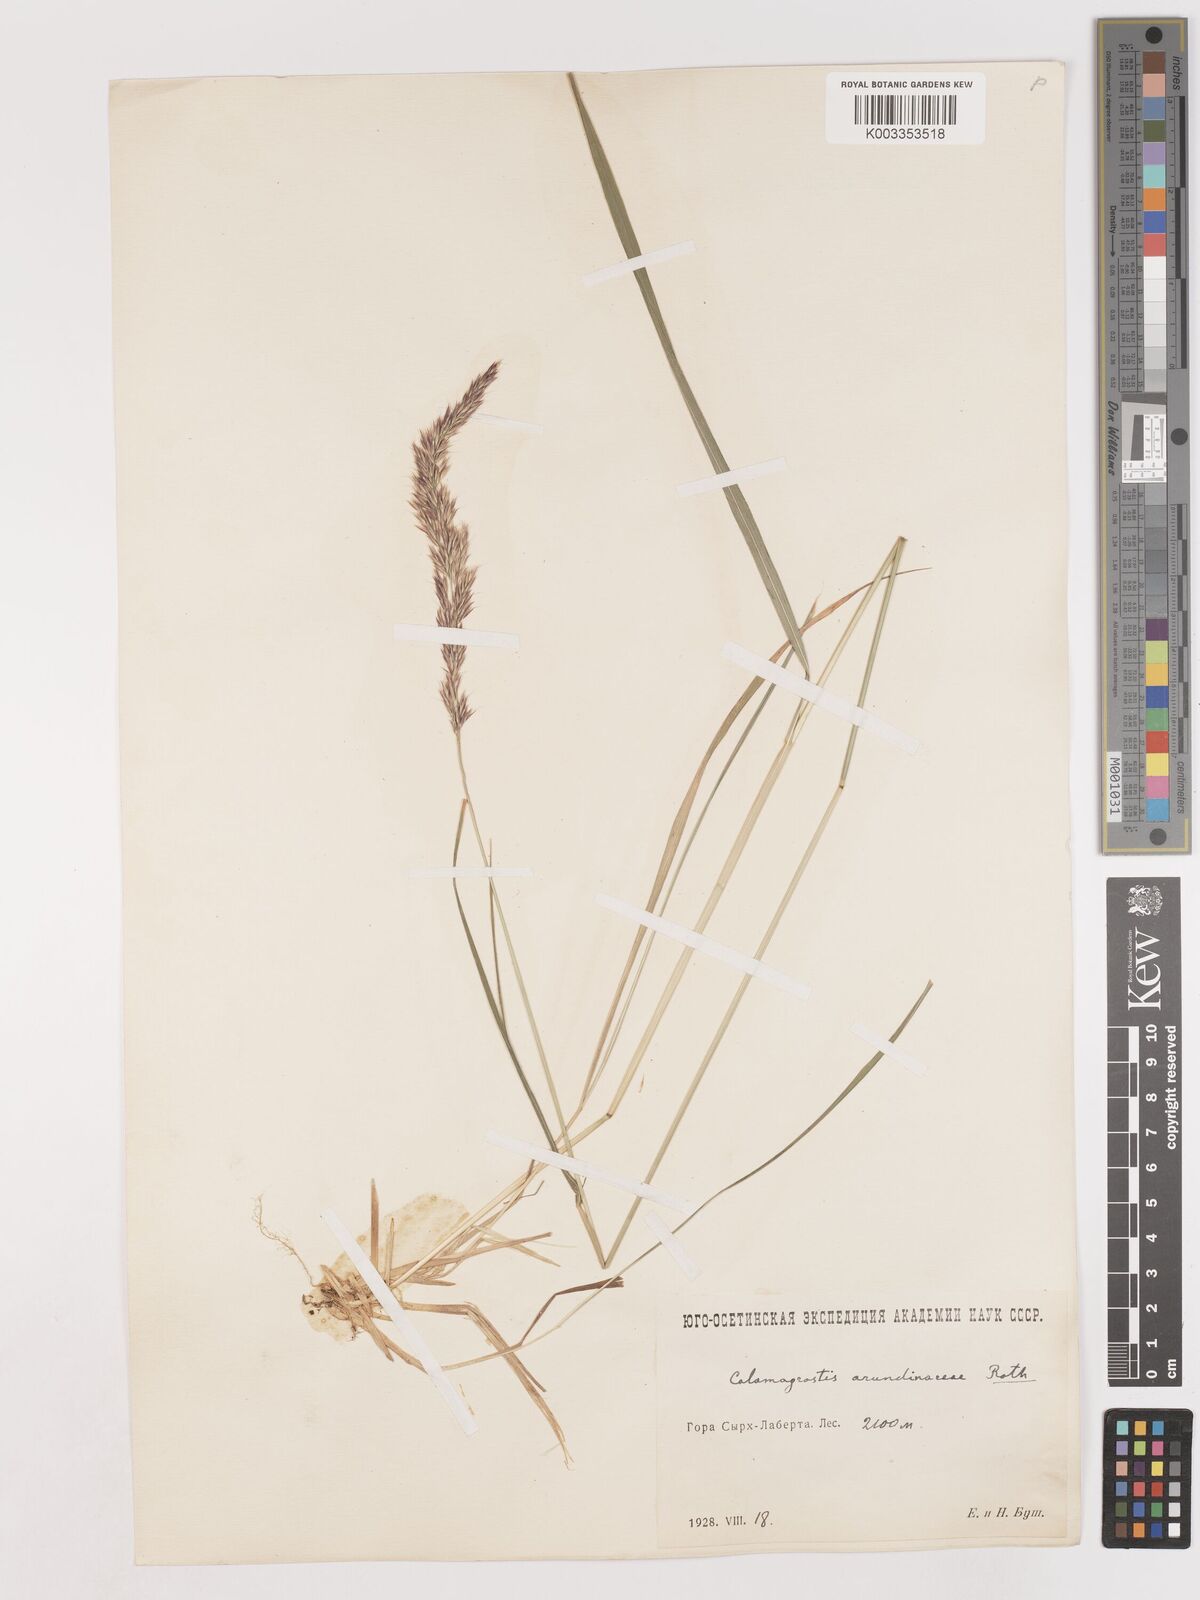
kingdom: Plantae
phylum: Tracheophyta
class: Liliopsida
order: Poales
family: Poaceae
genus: Calamagrostis
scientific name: Calamagrostis
